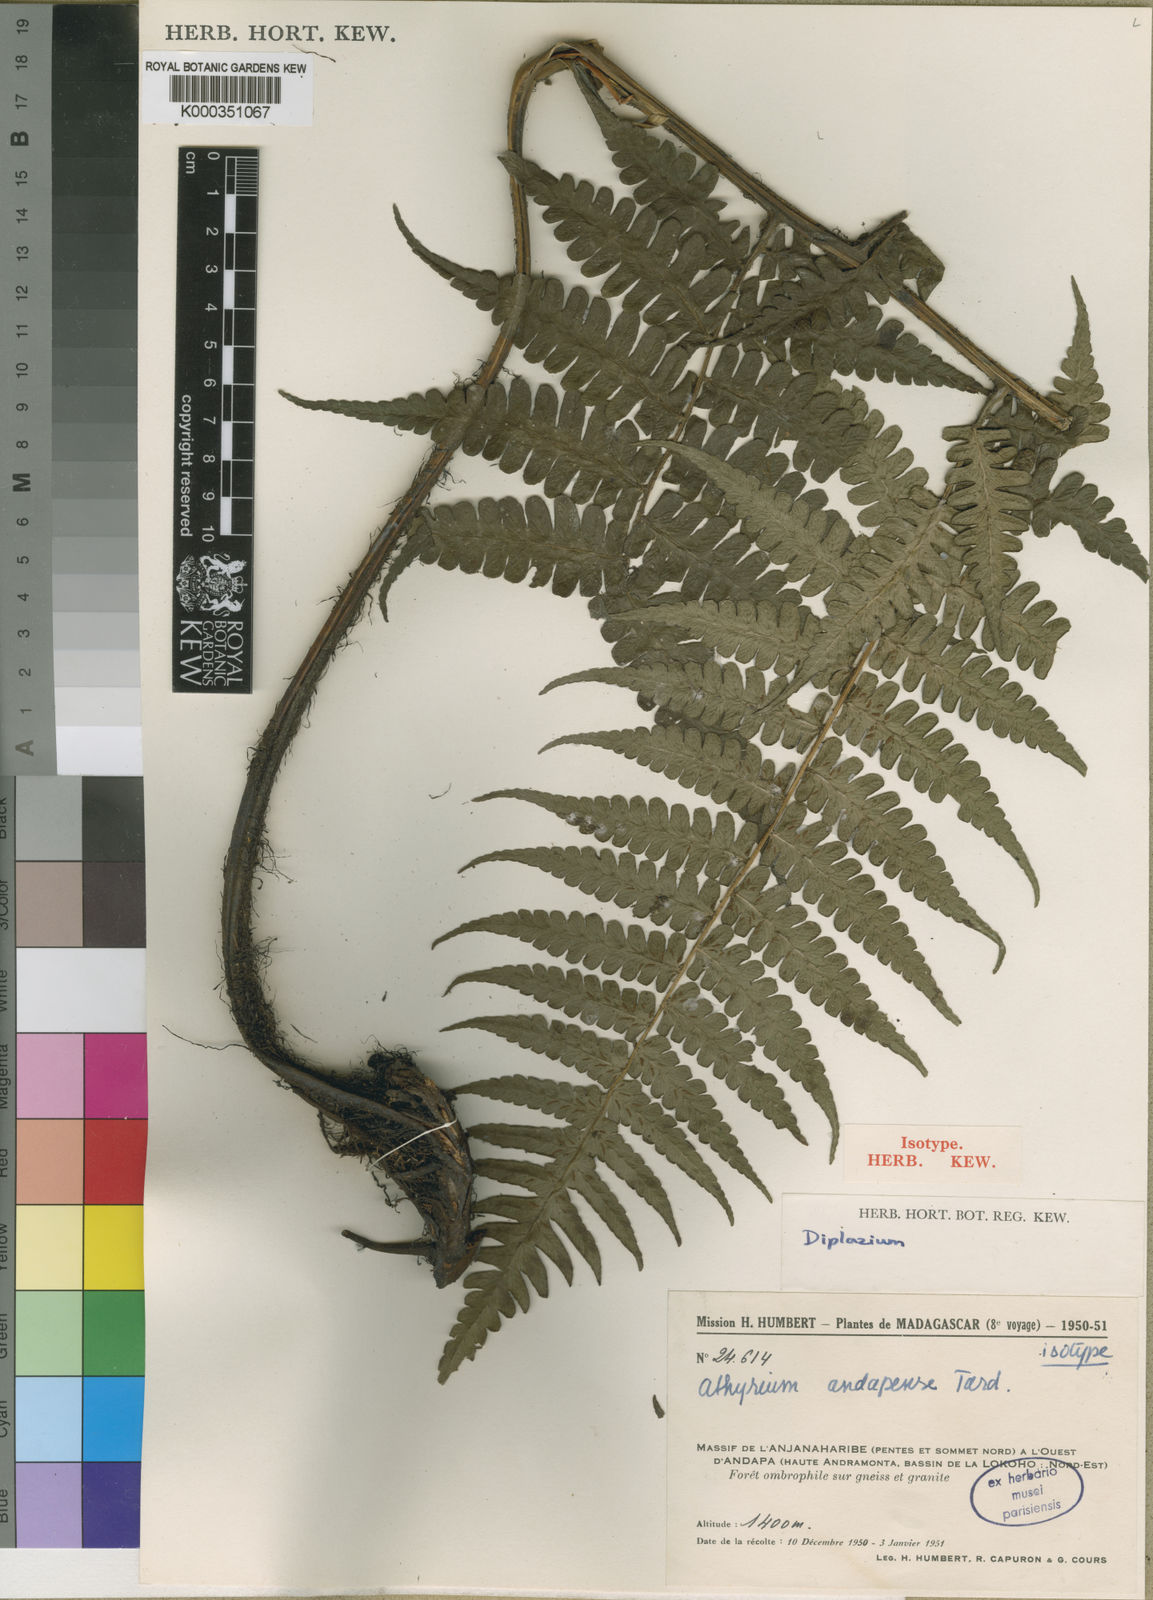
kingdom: Plantae
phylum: Tracheophyta
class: Polypodiopsida
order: Polypodiales
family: Athyriaceae
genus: Diplazium
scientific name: Diplazium andapense
